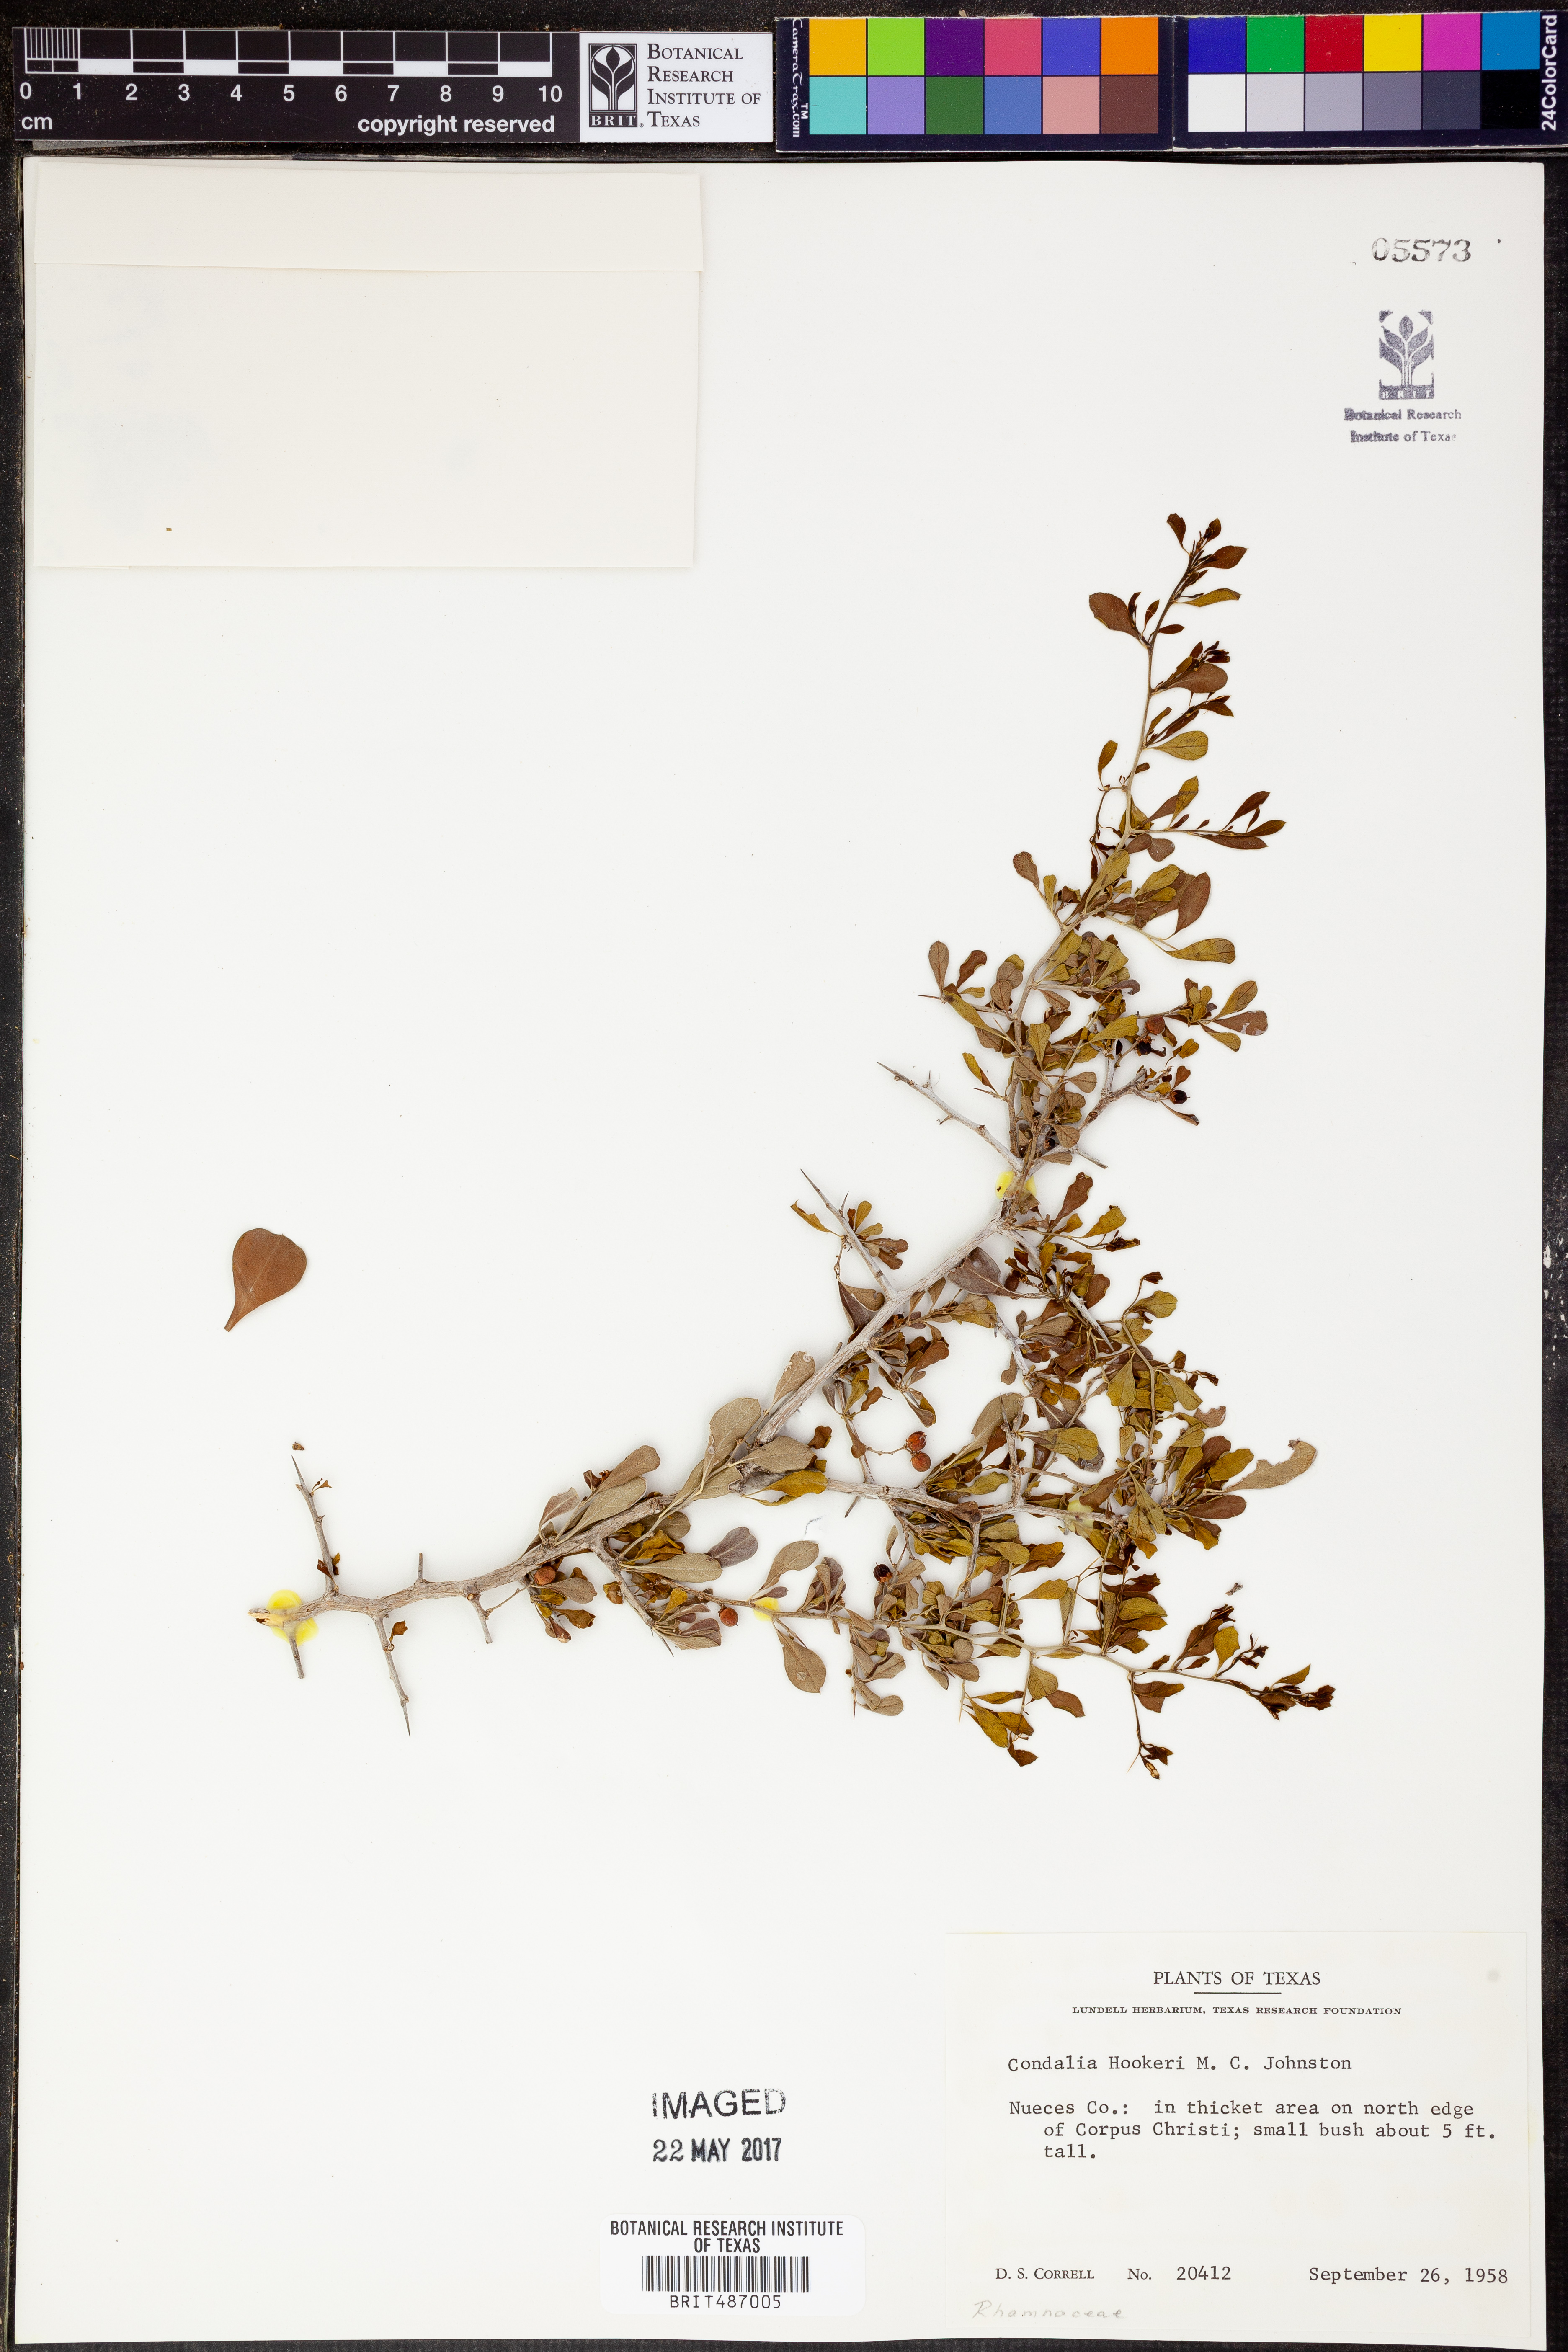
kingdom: Plantae
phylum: Tracheophyta
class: Magnoliopsida
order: Rosales
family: Rhamnaceae
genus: Condalia
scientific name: Condalia hookeri
